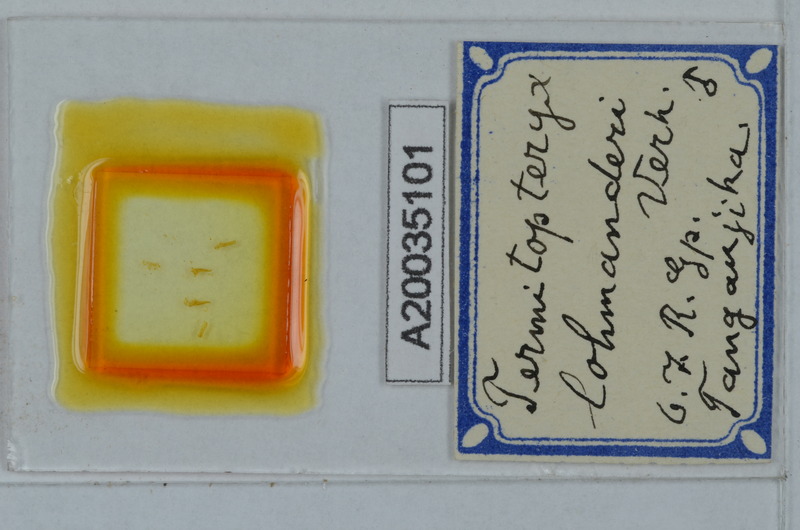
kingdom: Animalia
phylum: Arthropoda
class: Diplopoda
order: Polydesmida
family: Pyrgodesmidae
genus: Termitopteryx
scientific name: Termitopteryx lohmanderi
